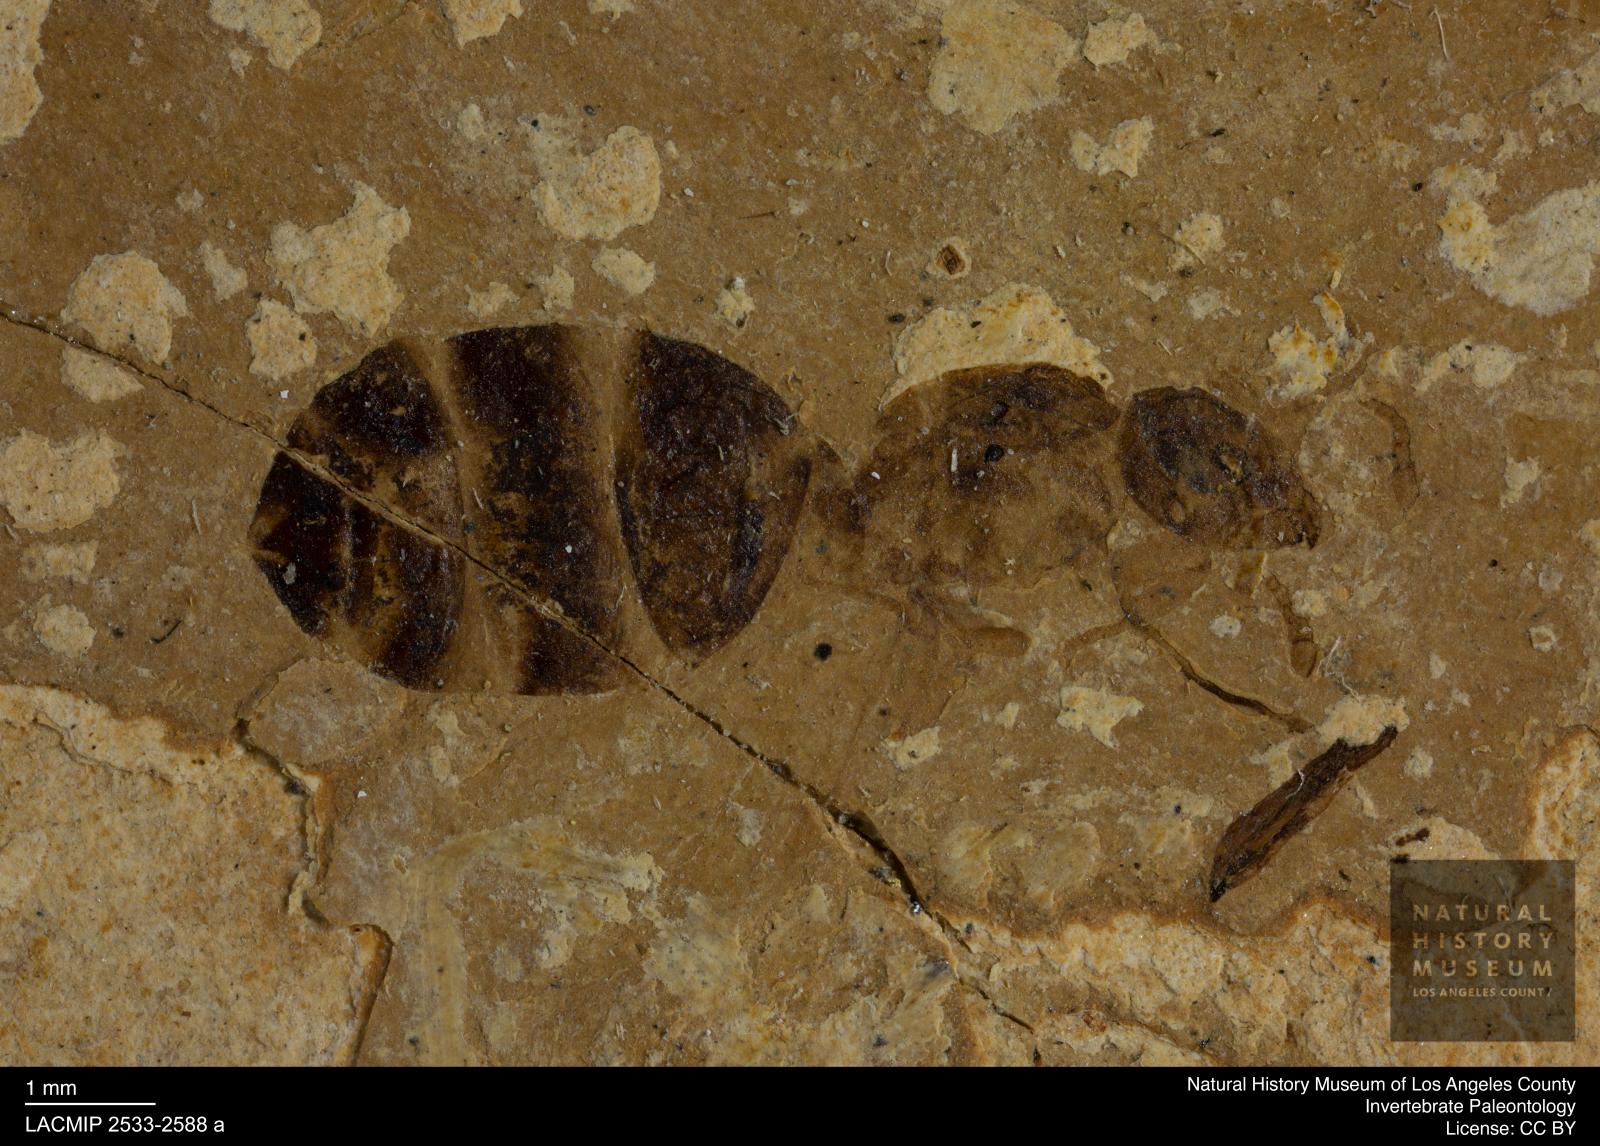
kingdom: Animalia
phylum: Arthropoda
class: Insecta
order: Hymenoptera
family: Formicidae
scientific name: Formicidae
